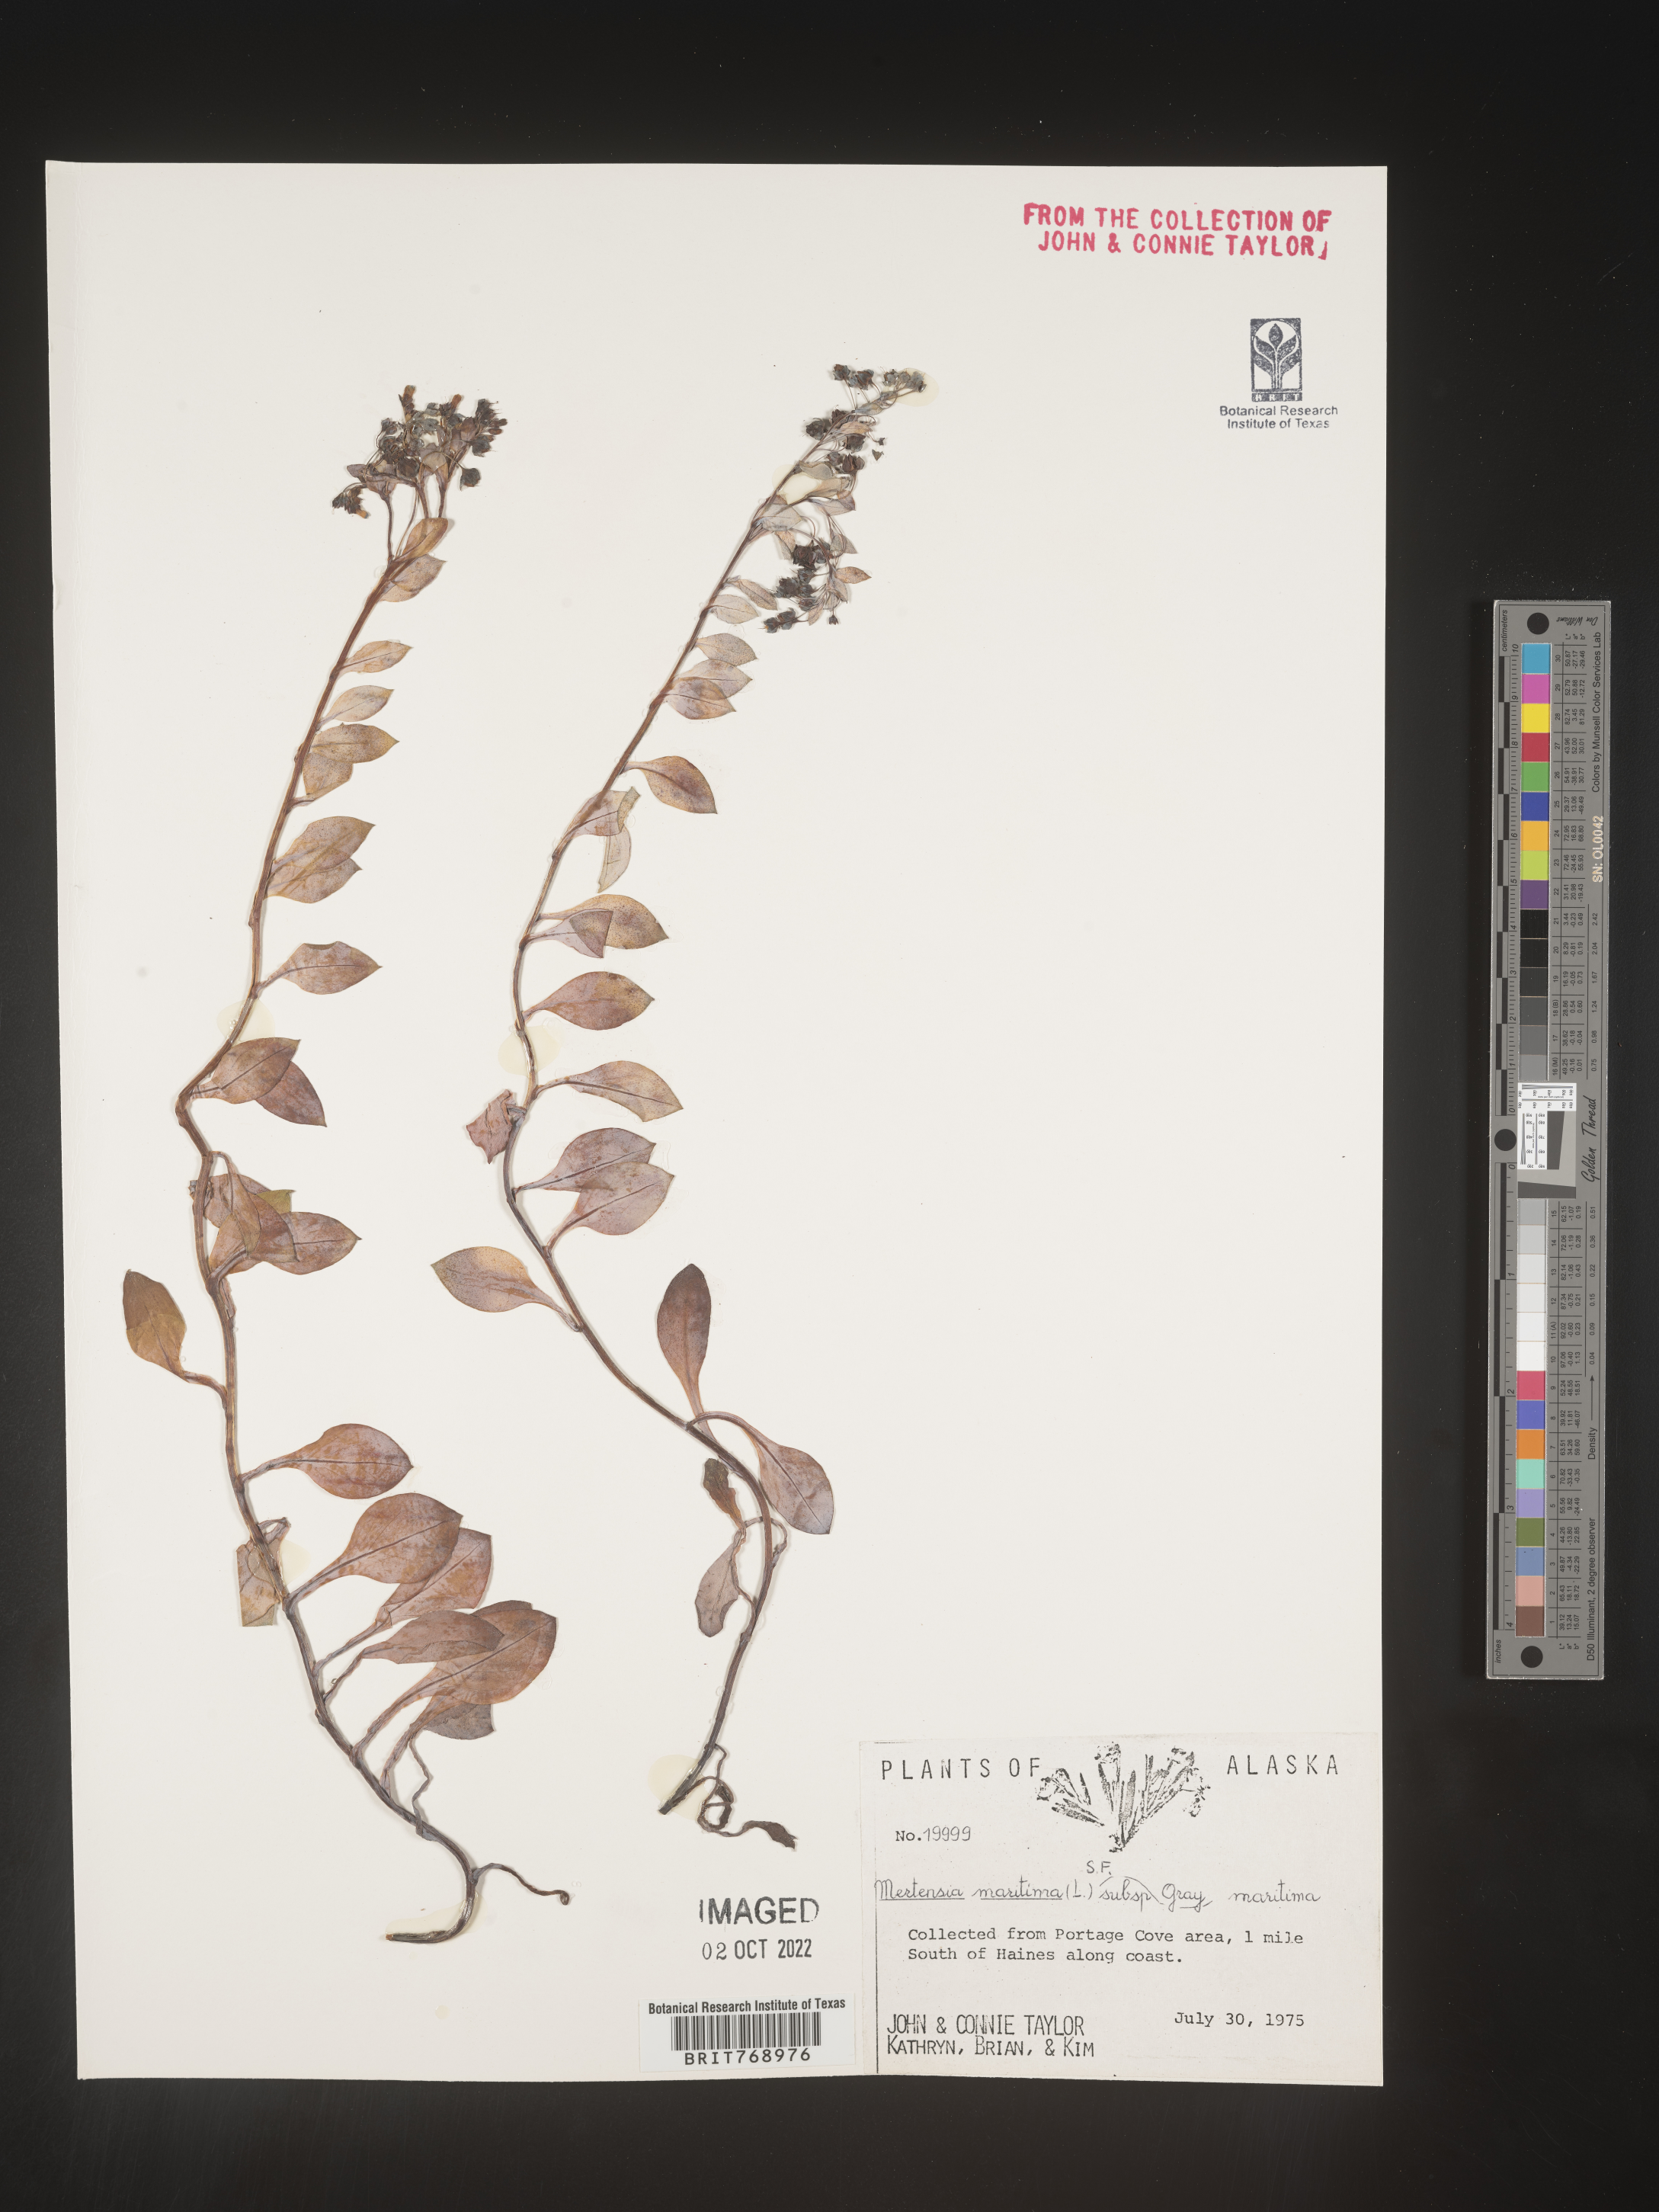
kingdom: Plantae
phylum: Tracheophyta
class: Magnoliopsida
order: Boraginales
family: Boraginaceae
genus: Mertensia
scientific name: Mertensia
